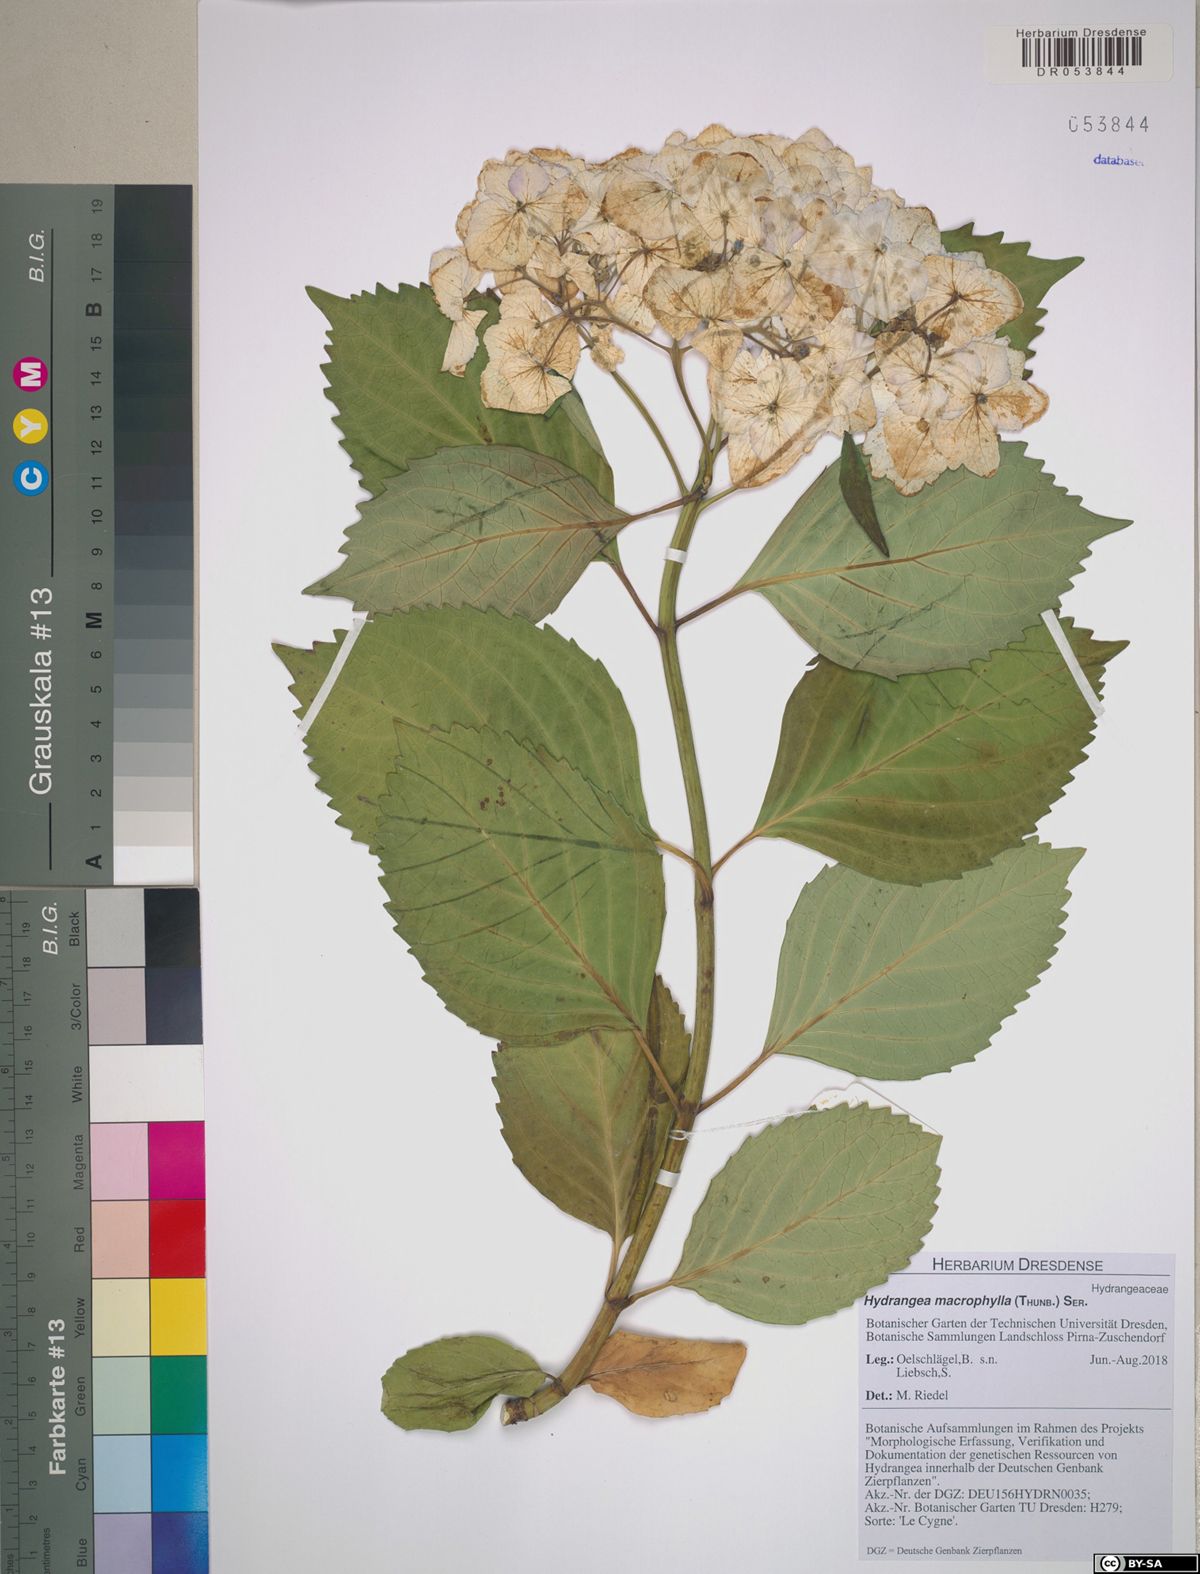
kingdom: Plantae
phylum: Tracheophyta
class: Magnoliopsida
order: Cornales
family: Hydrangeaceae
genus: Hydrangea
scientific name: Hydrangea macrophylla
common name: Hydrangea
